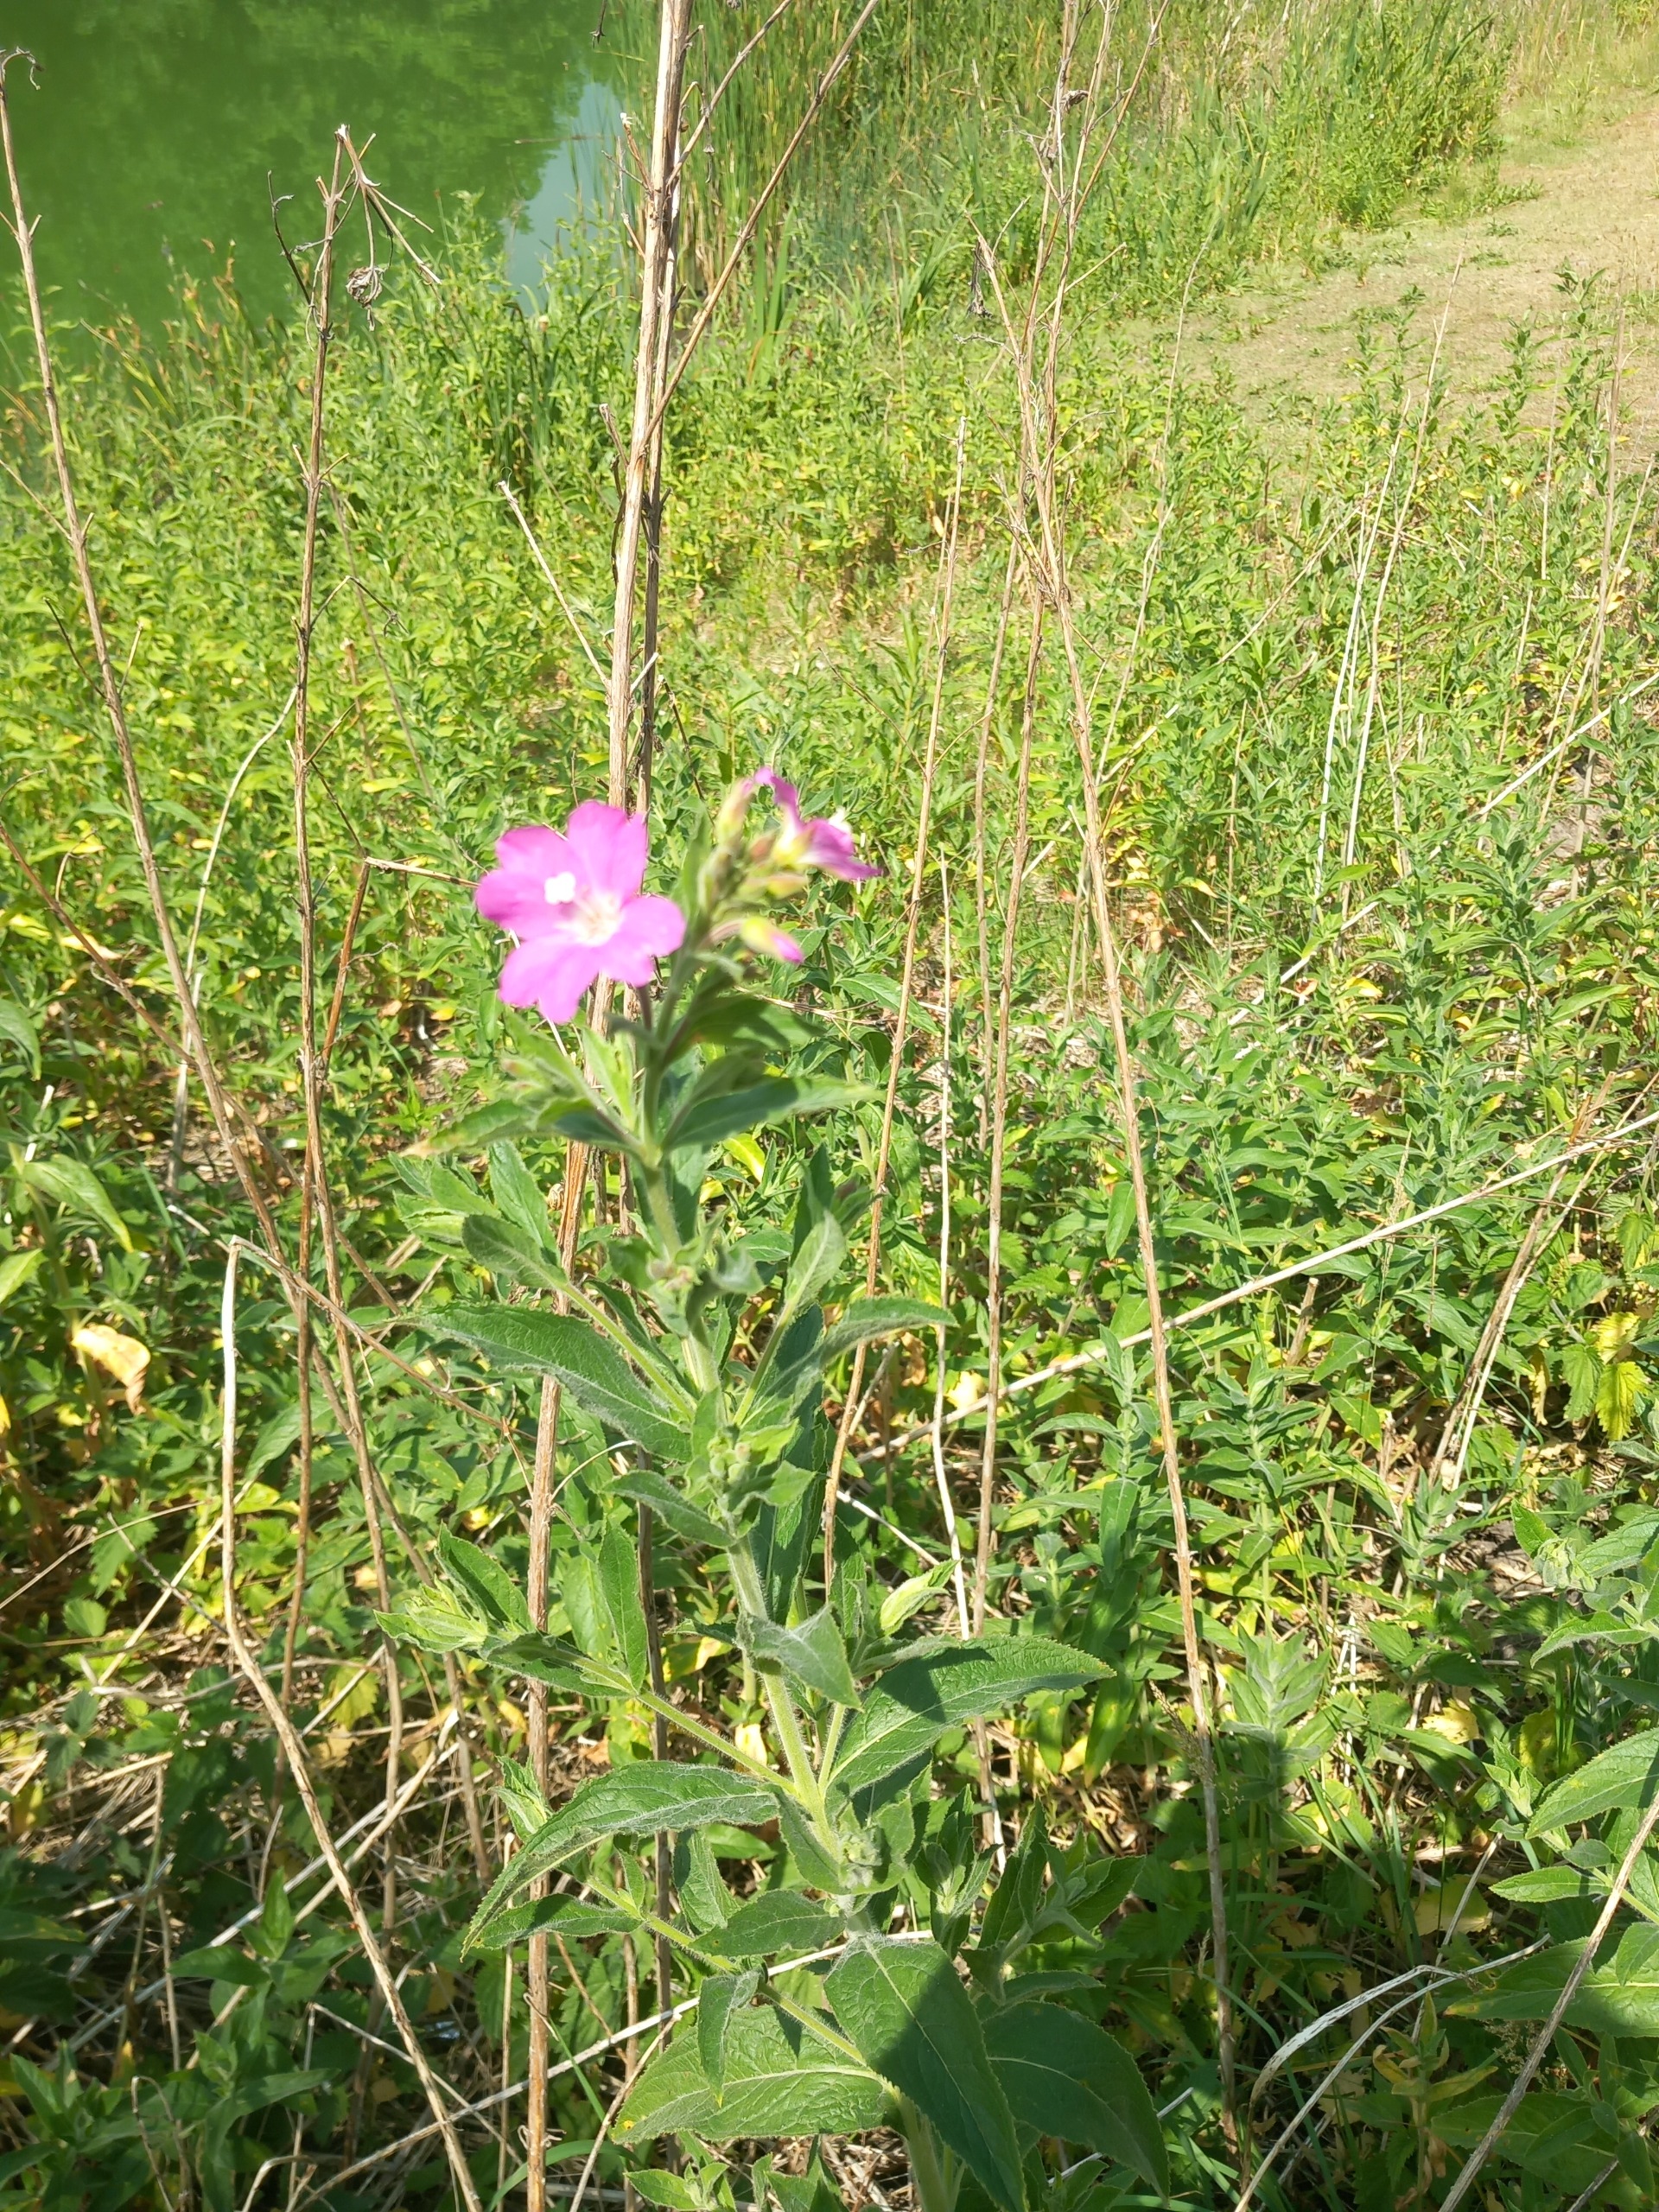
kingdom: Plantae
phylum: Tracheophyta
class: Magnoliopsida
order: Myrtales
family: Onagraceae
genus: Epilobium
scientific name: Epilobium hirsutum
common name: Lådden dueurt
